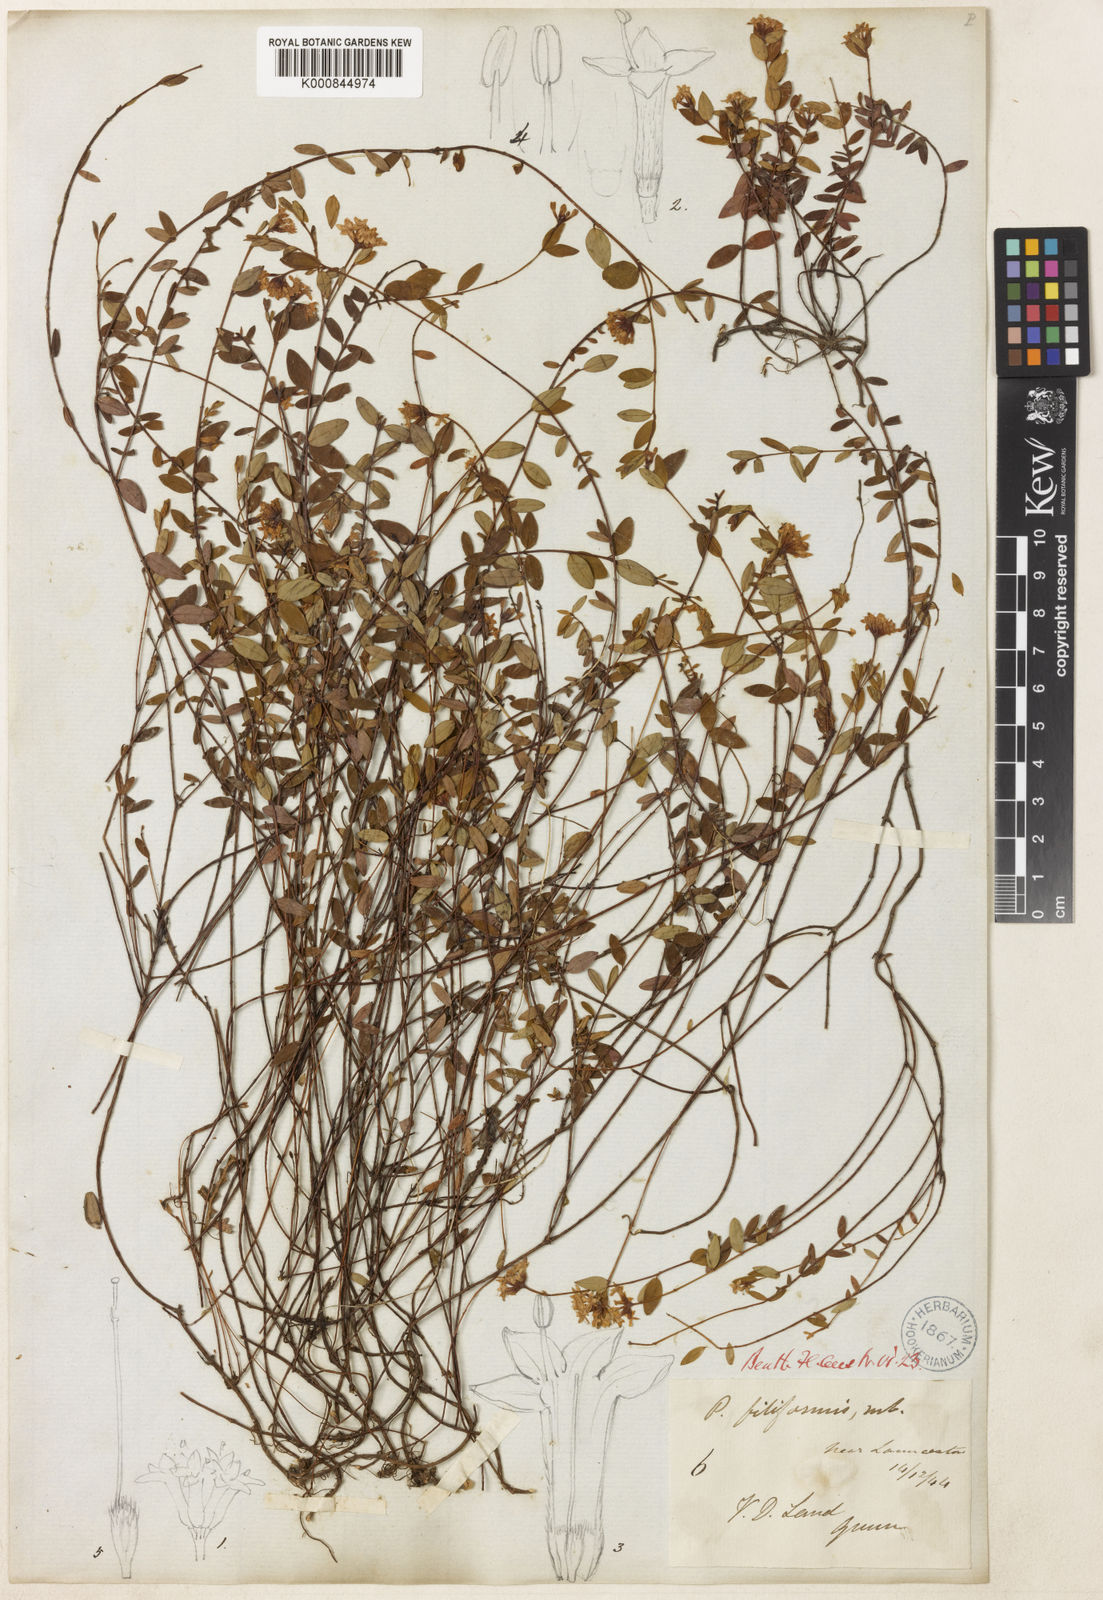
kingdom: Plantae
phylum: Tracheophyta
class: Magnoliopsida
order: Malvales
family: Thymelaeaceae
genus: Pimelea
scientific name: Pimelea filiformis
